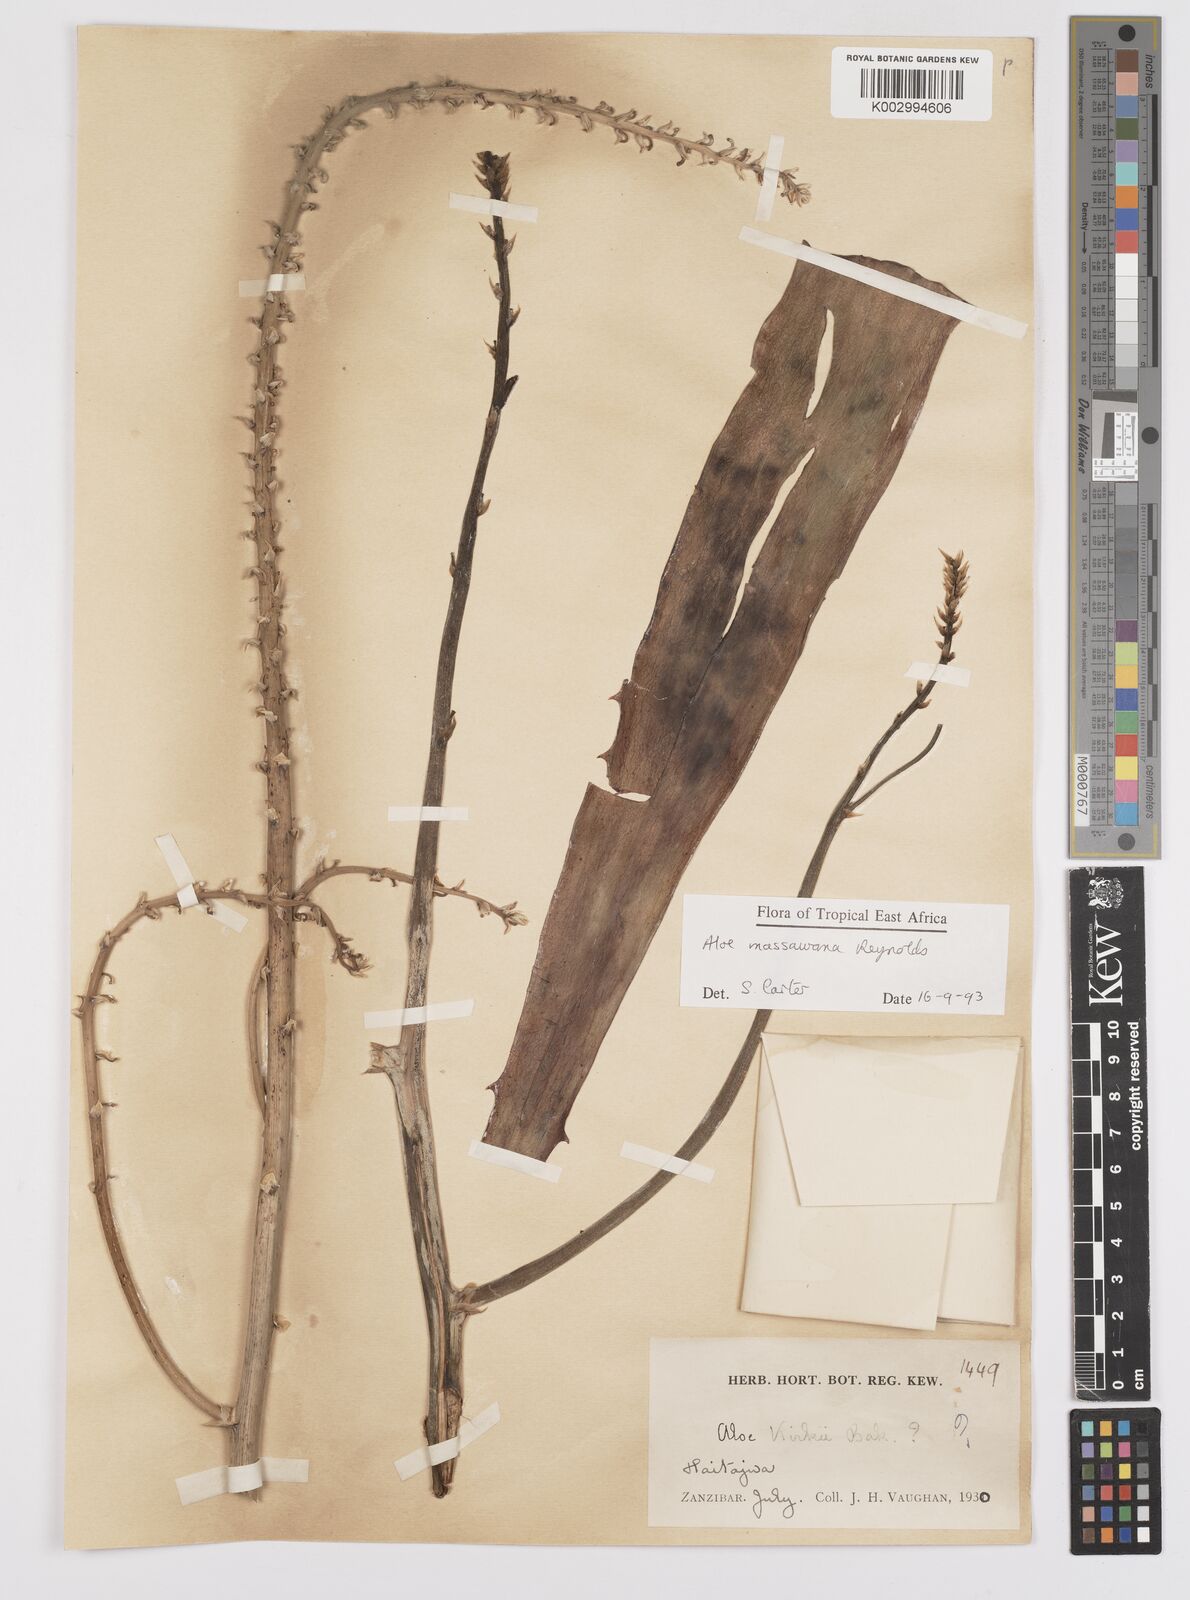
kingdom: Plantae
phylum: Tracheophyta
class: Liliopsida
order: Asparagales
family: Asphodelaceae
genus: Aloe
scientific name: Aloe massawana
